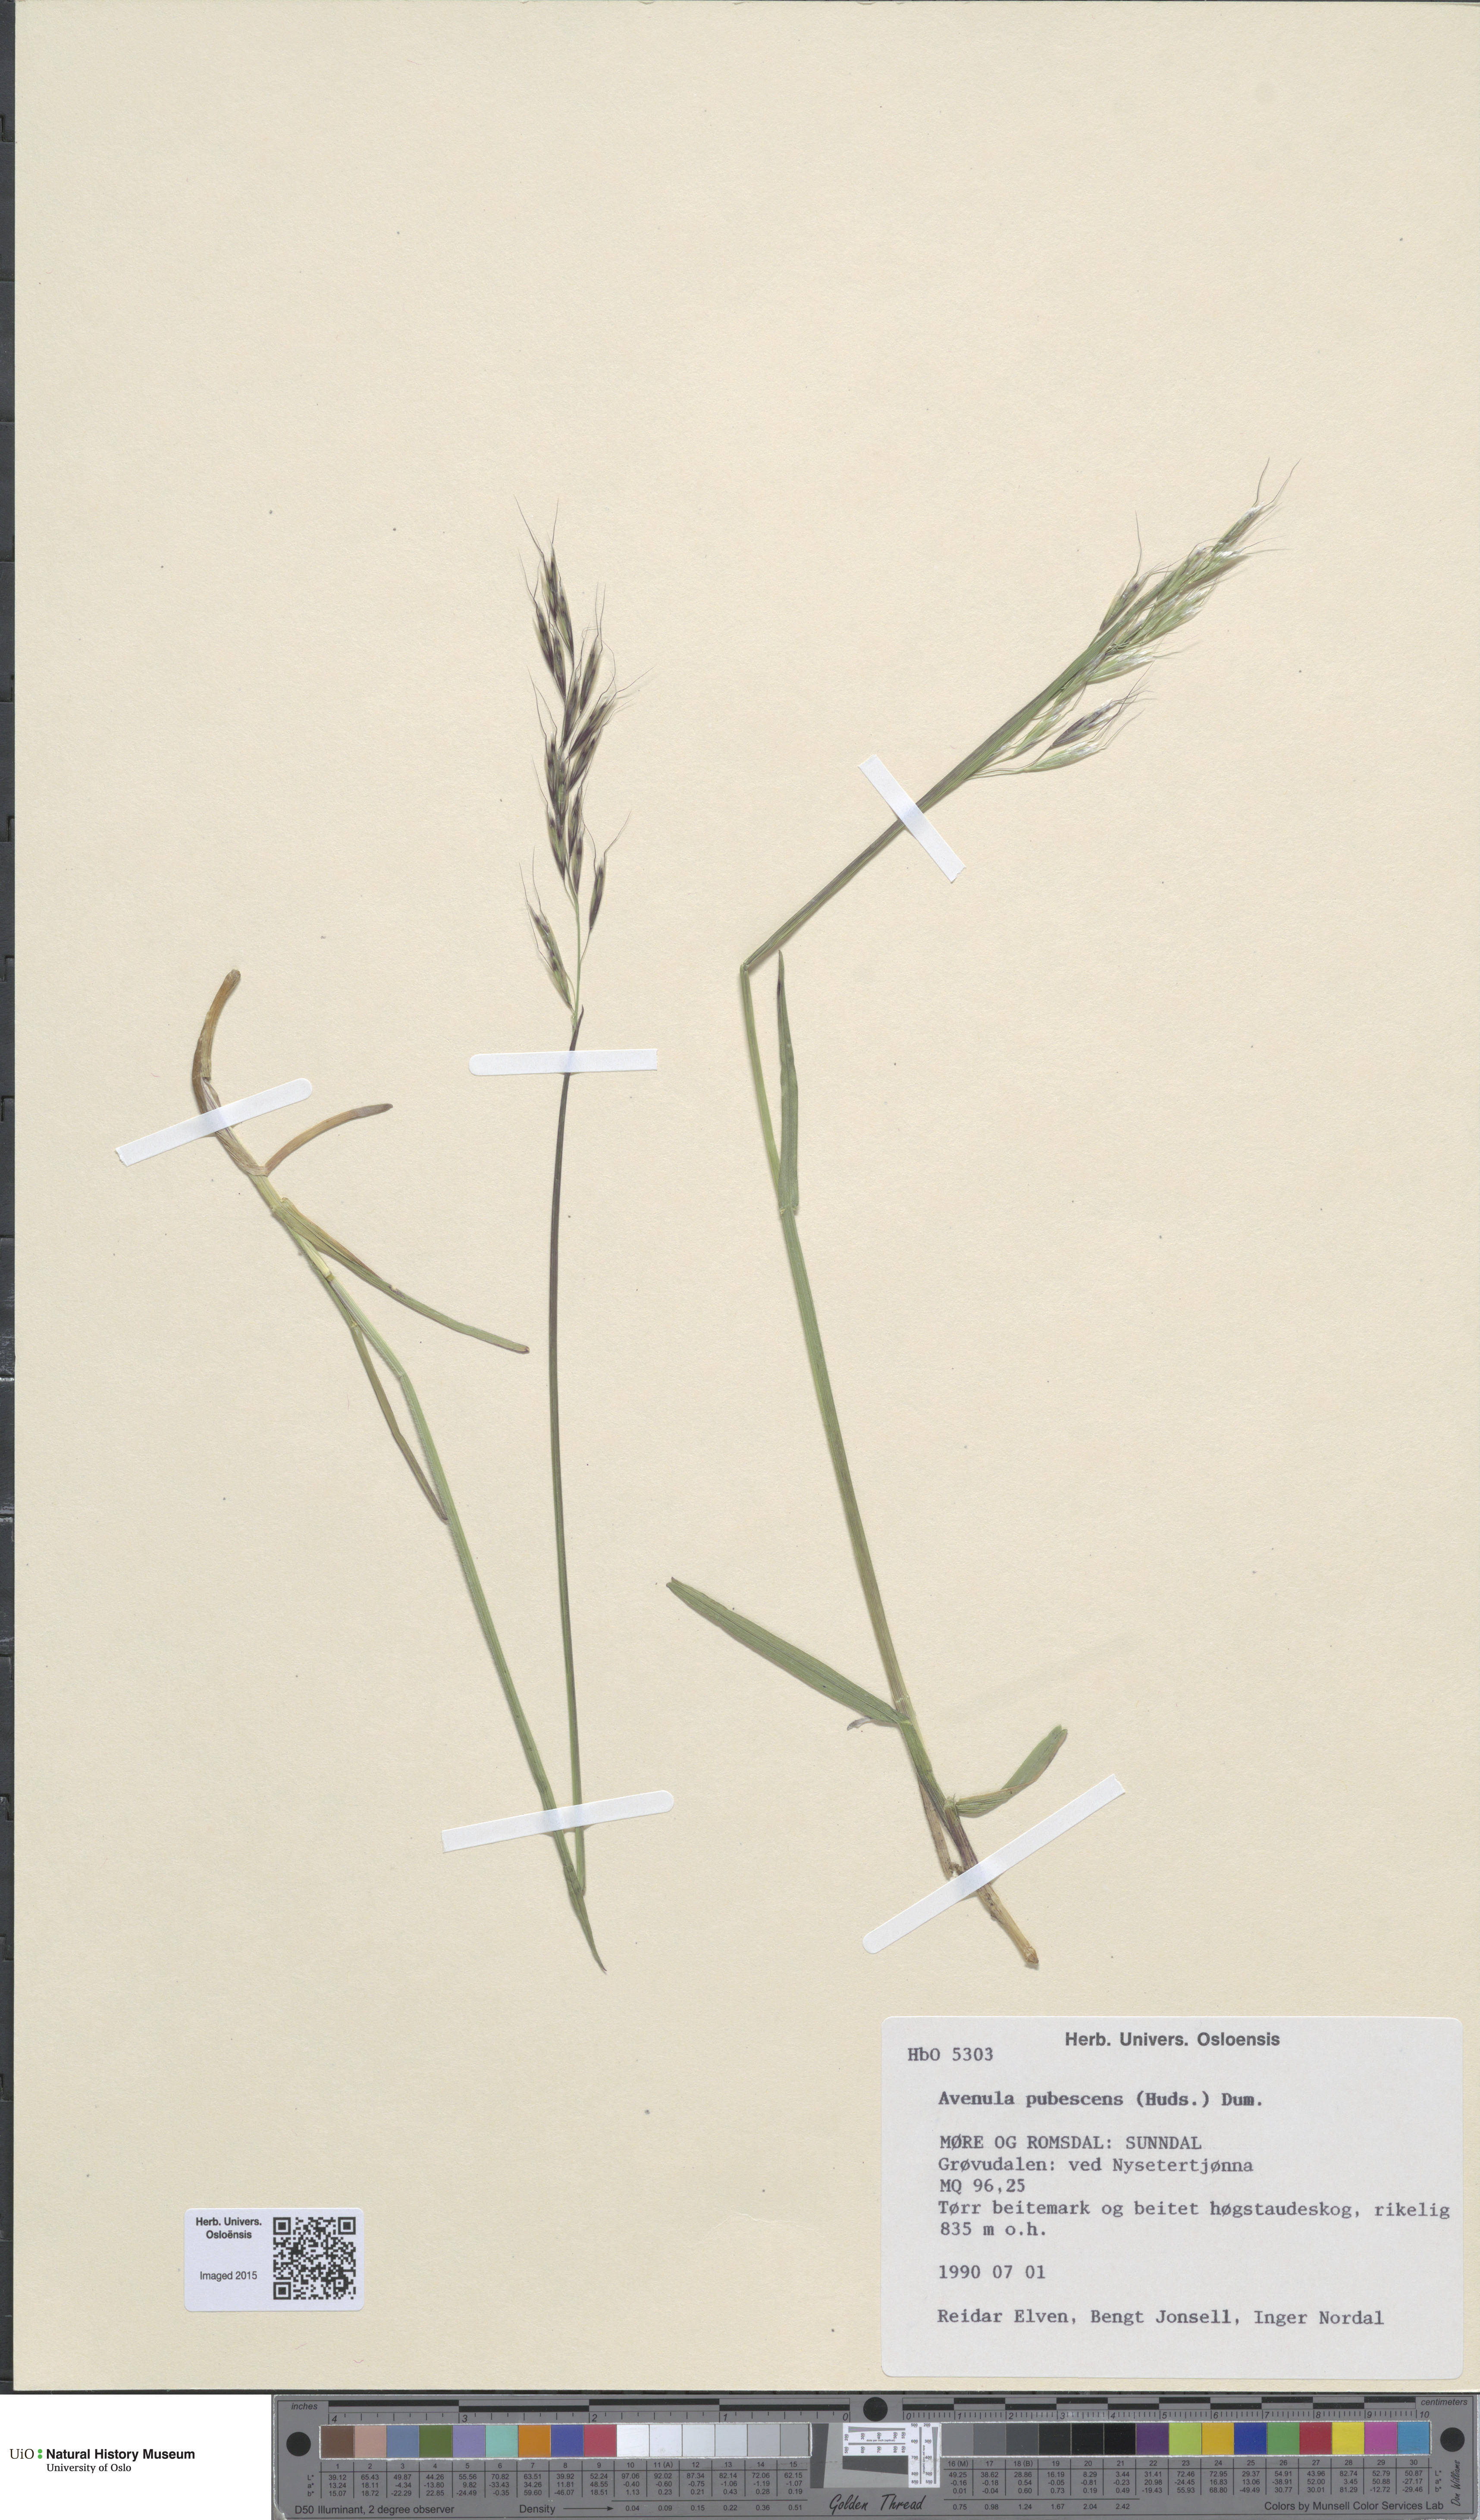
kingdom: Plantae
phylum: Tracheophyta
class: Liliopsida
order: Poales
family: Poaceae
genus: Avenula
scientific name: Avenula pubescens
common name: Downy alpine oatgrass
